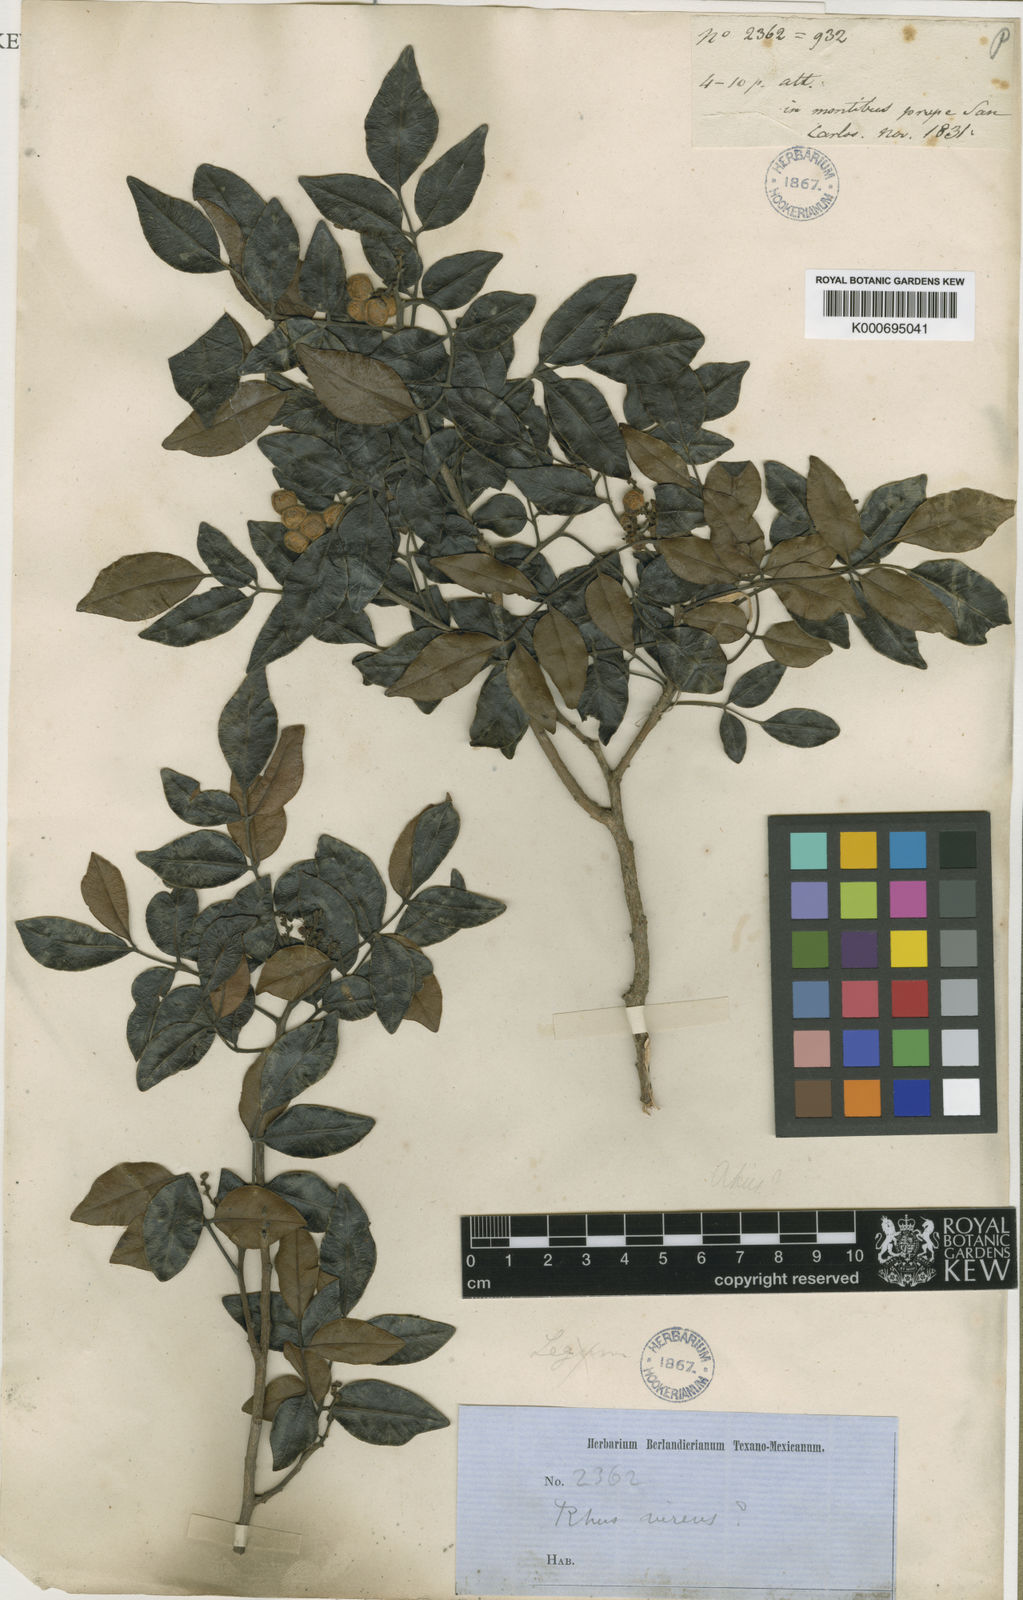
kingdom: Plantae
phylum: Tracheophyta
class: Magnoliopsida
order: Sapindales
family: Anacardiaceae
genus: Rhus
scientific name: Rhus virens
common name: Evergreen sumac
